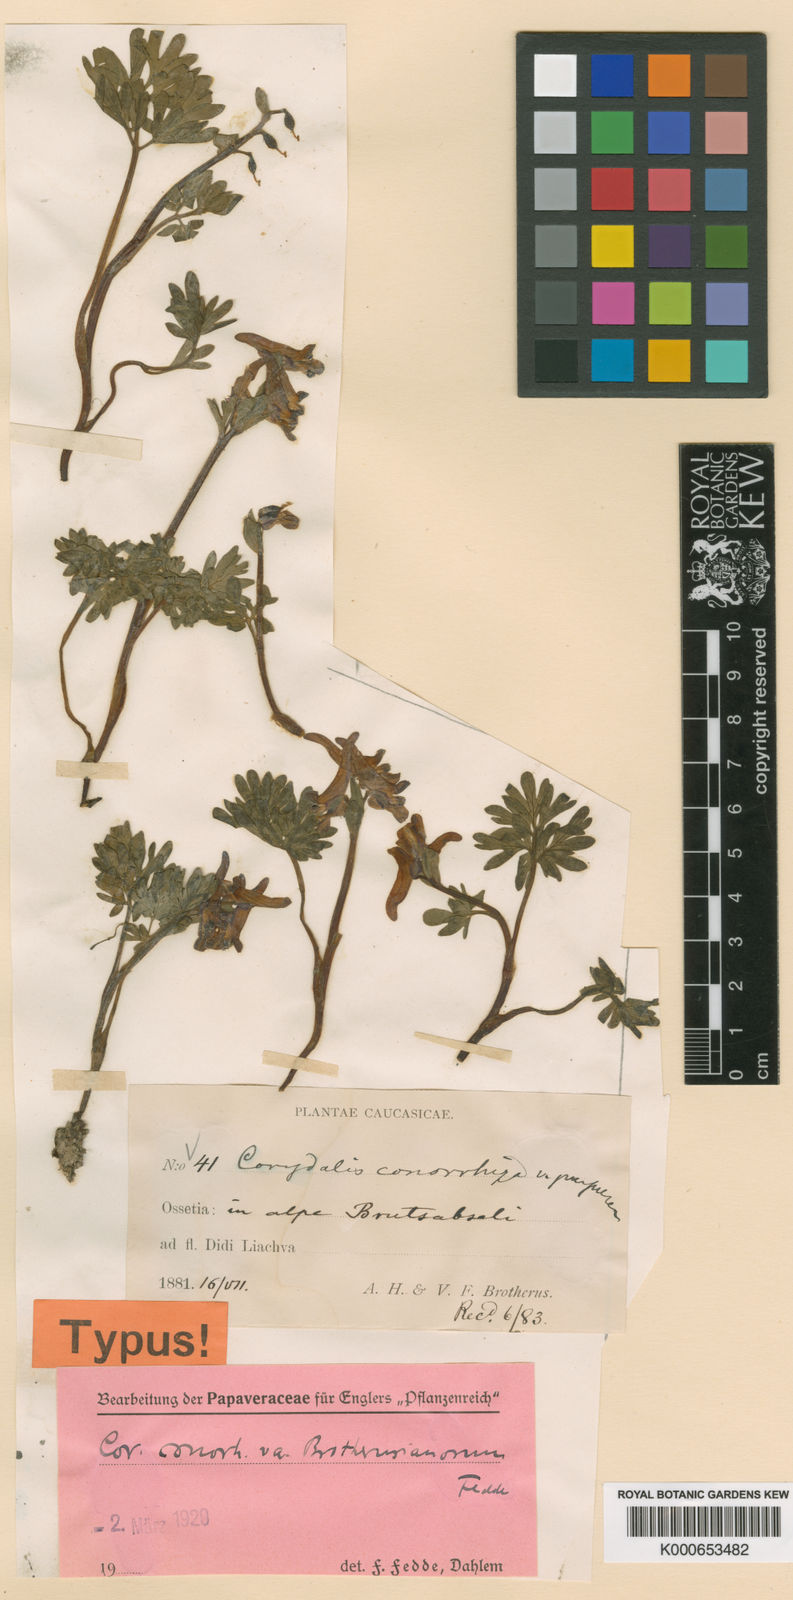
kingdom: Plantae
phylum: Tracheophyta
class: Magnoliopsida
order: Ranunculales
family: Papaveraceae
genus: Corydalis
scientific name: Corydalis conorhiza
